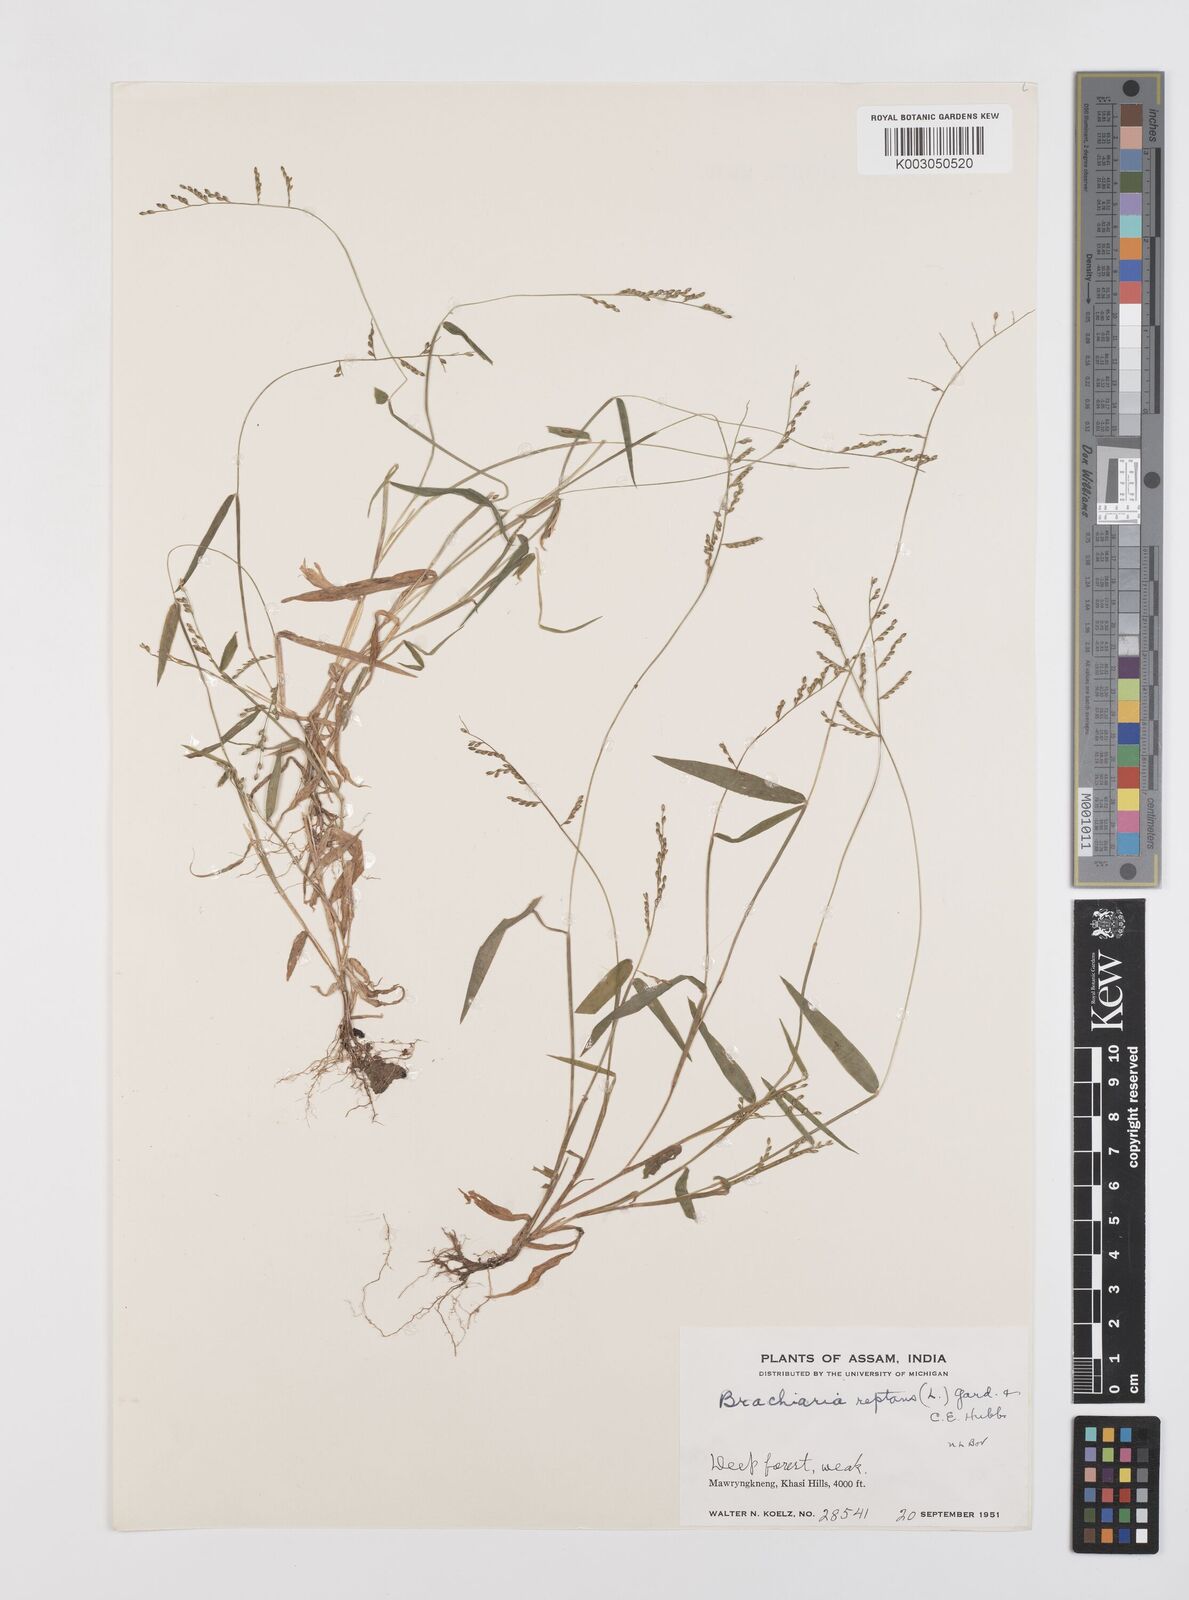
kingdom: Plantae
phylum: Tracheophyta
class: Liliopsida
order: Poales
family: Poaceae
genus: Urochloa
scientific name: Urochloa reptans
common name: Sprawling signalgrass
